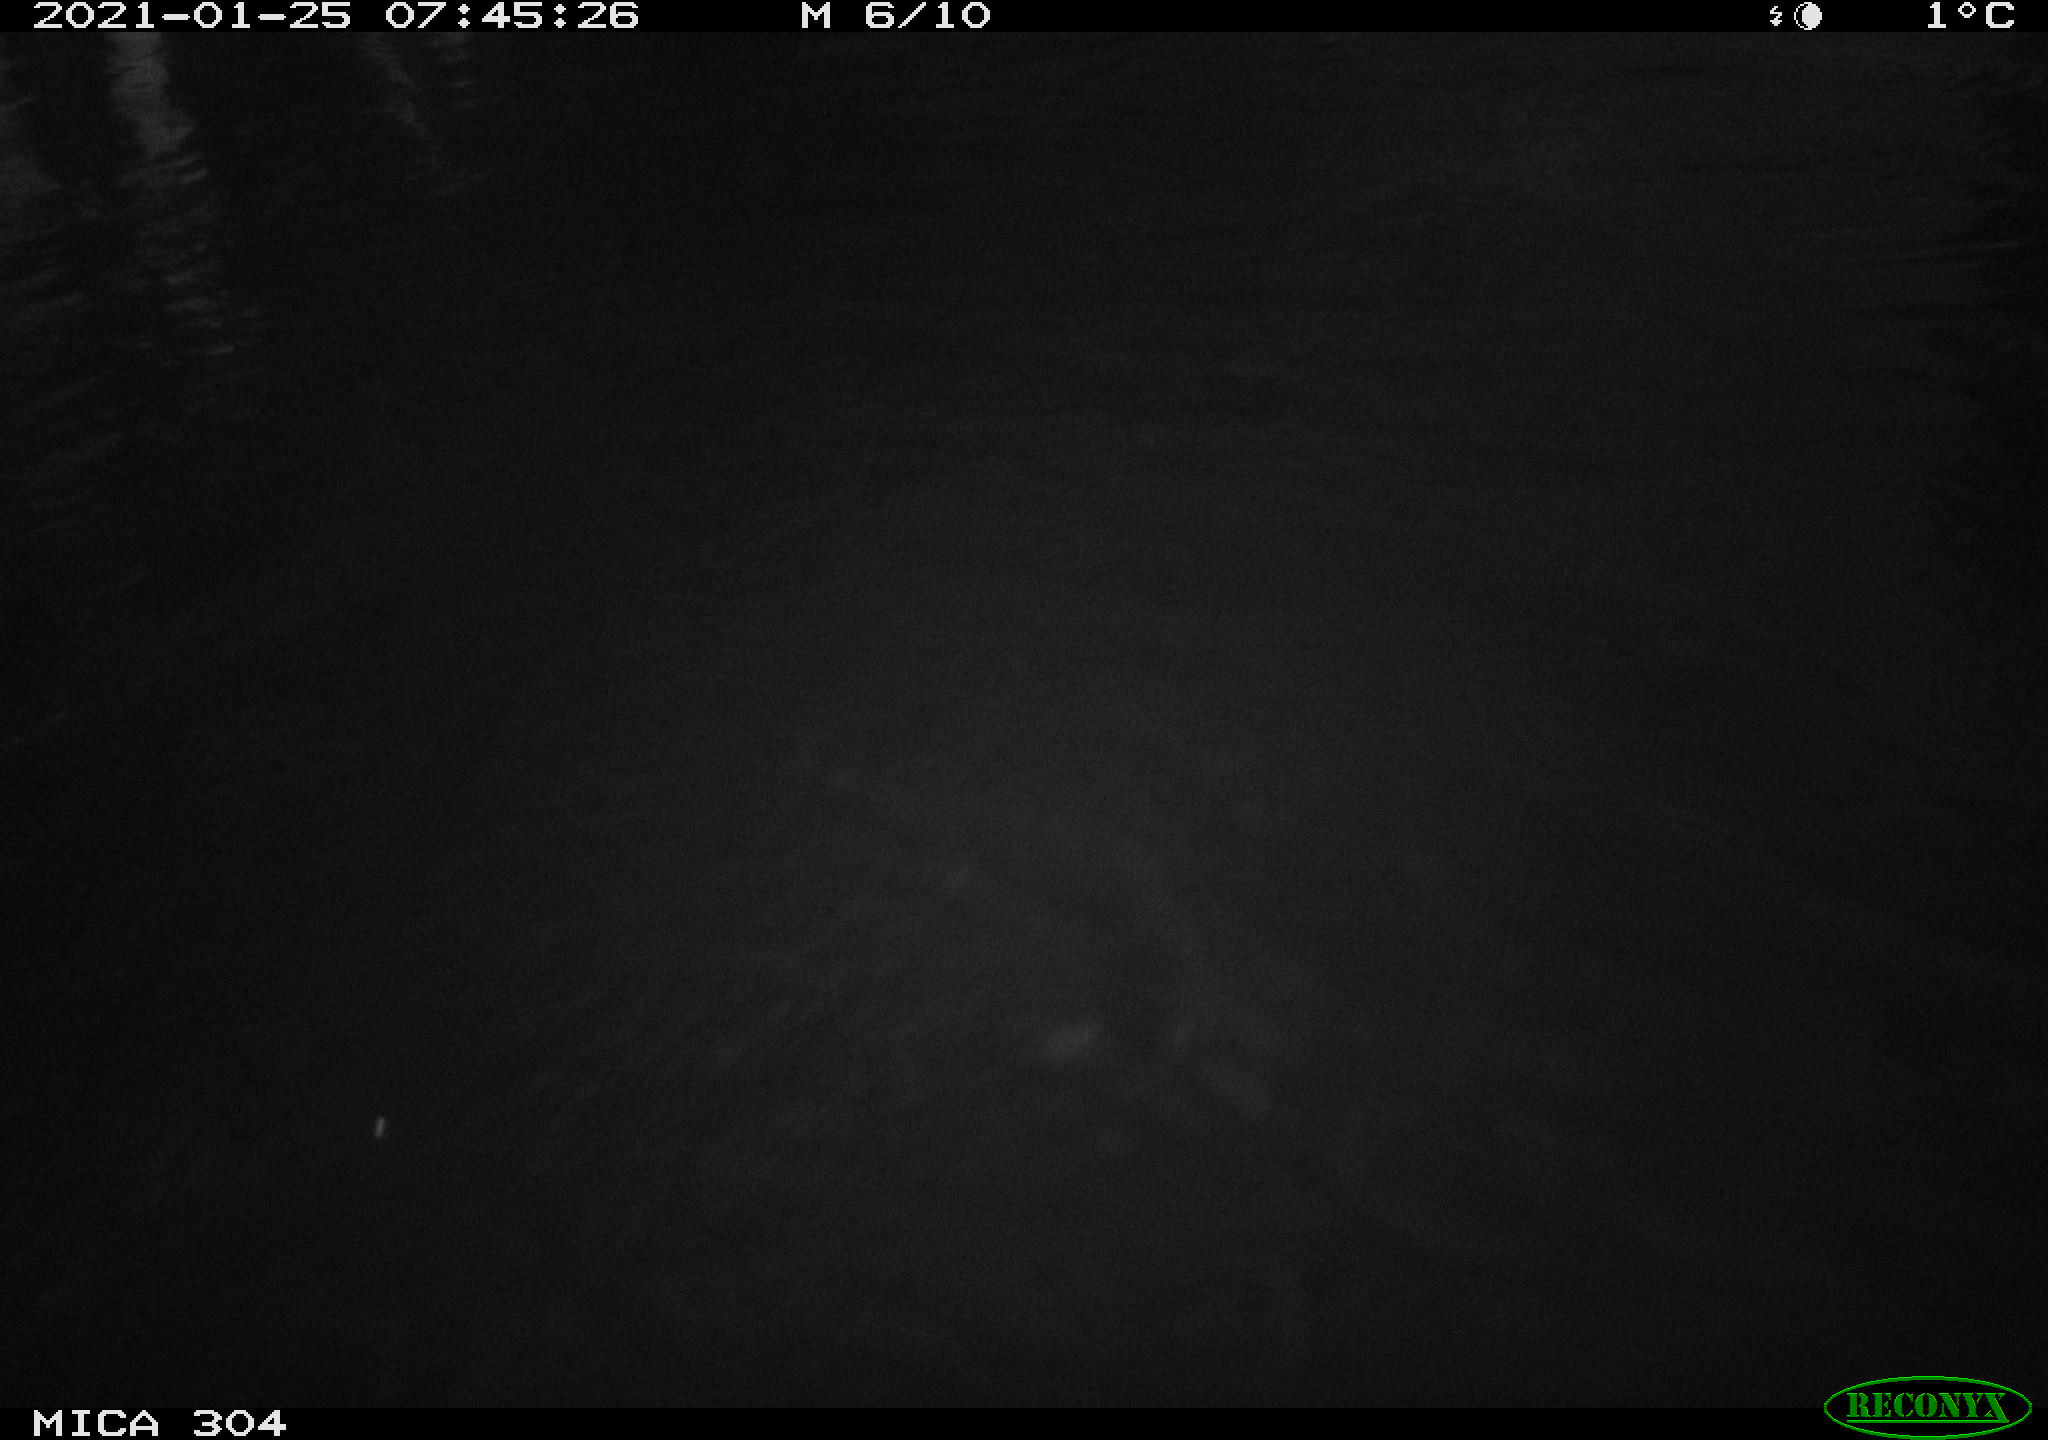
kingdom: Animalia
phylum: Chordata
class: Aves
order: Gruiformes
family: Rallidae
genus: Fulica
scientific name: Fulica atra
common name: Eurasian coot
